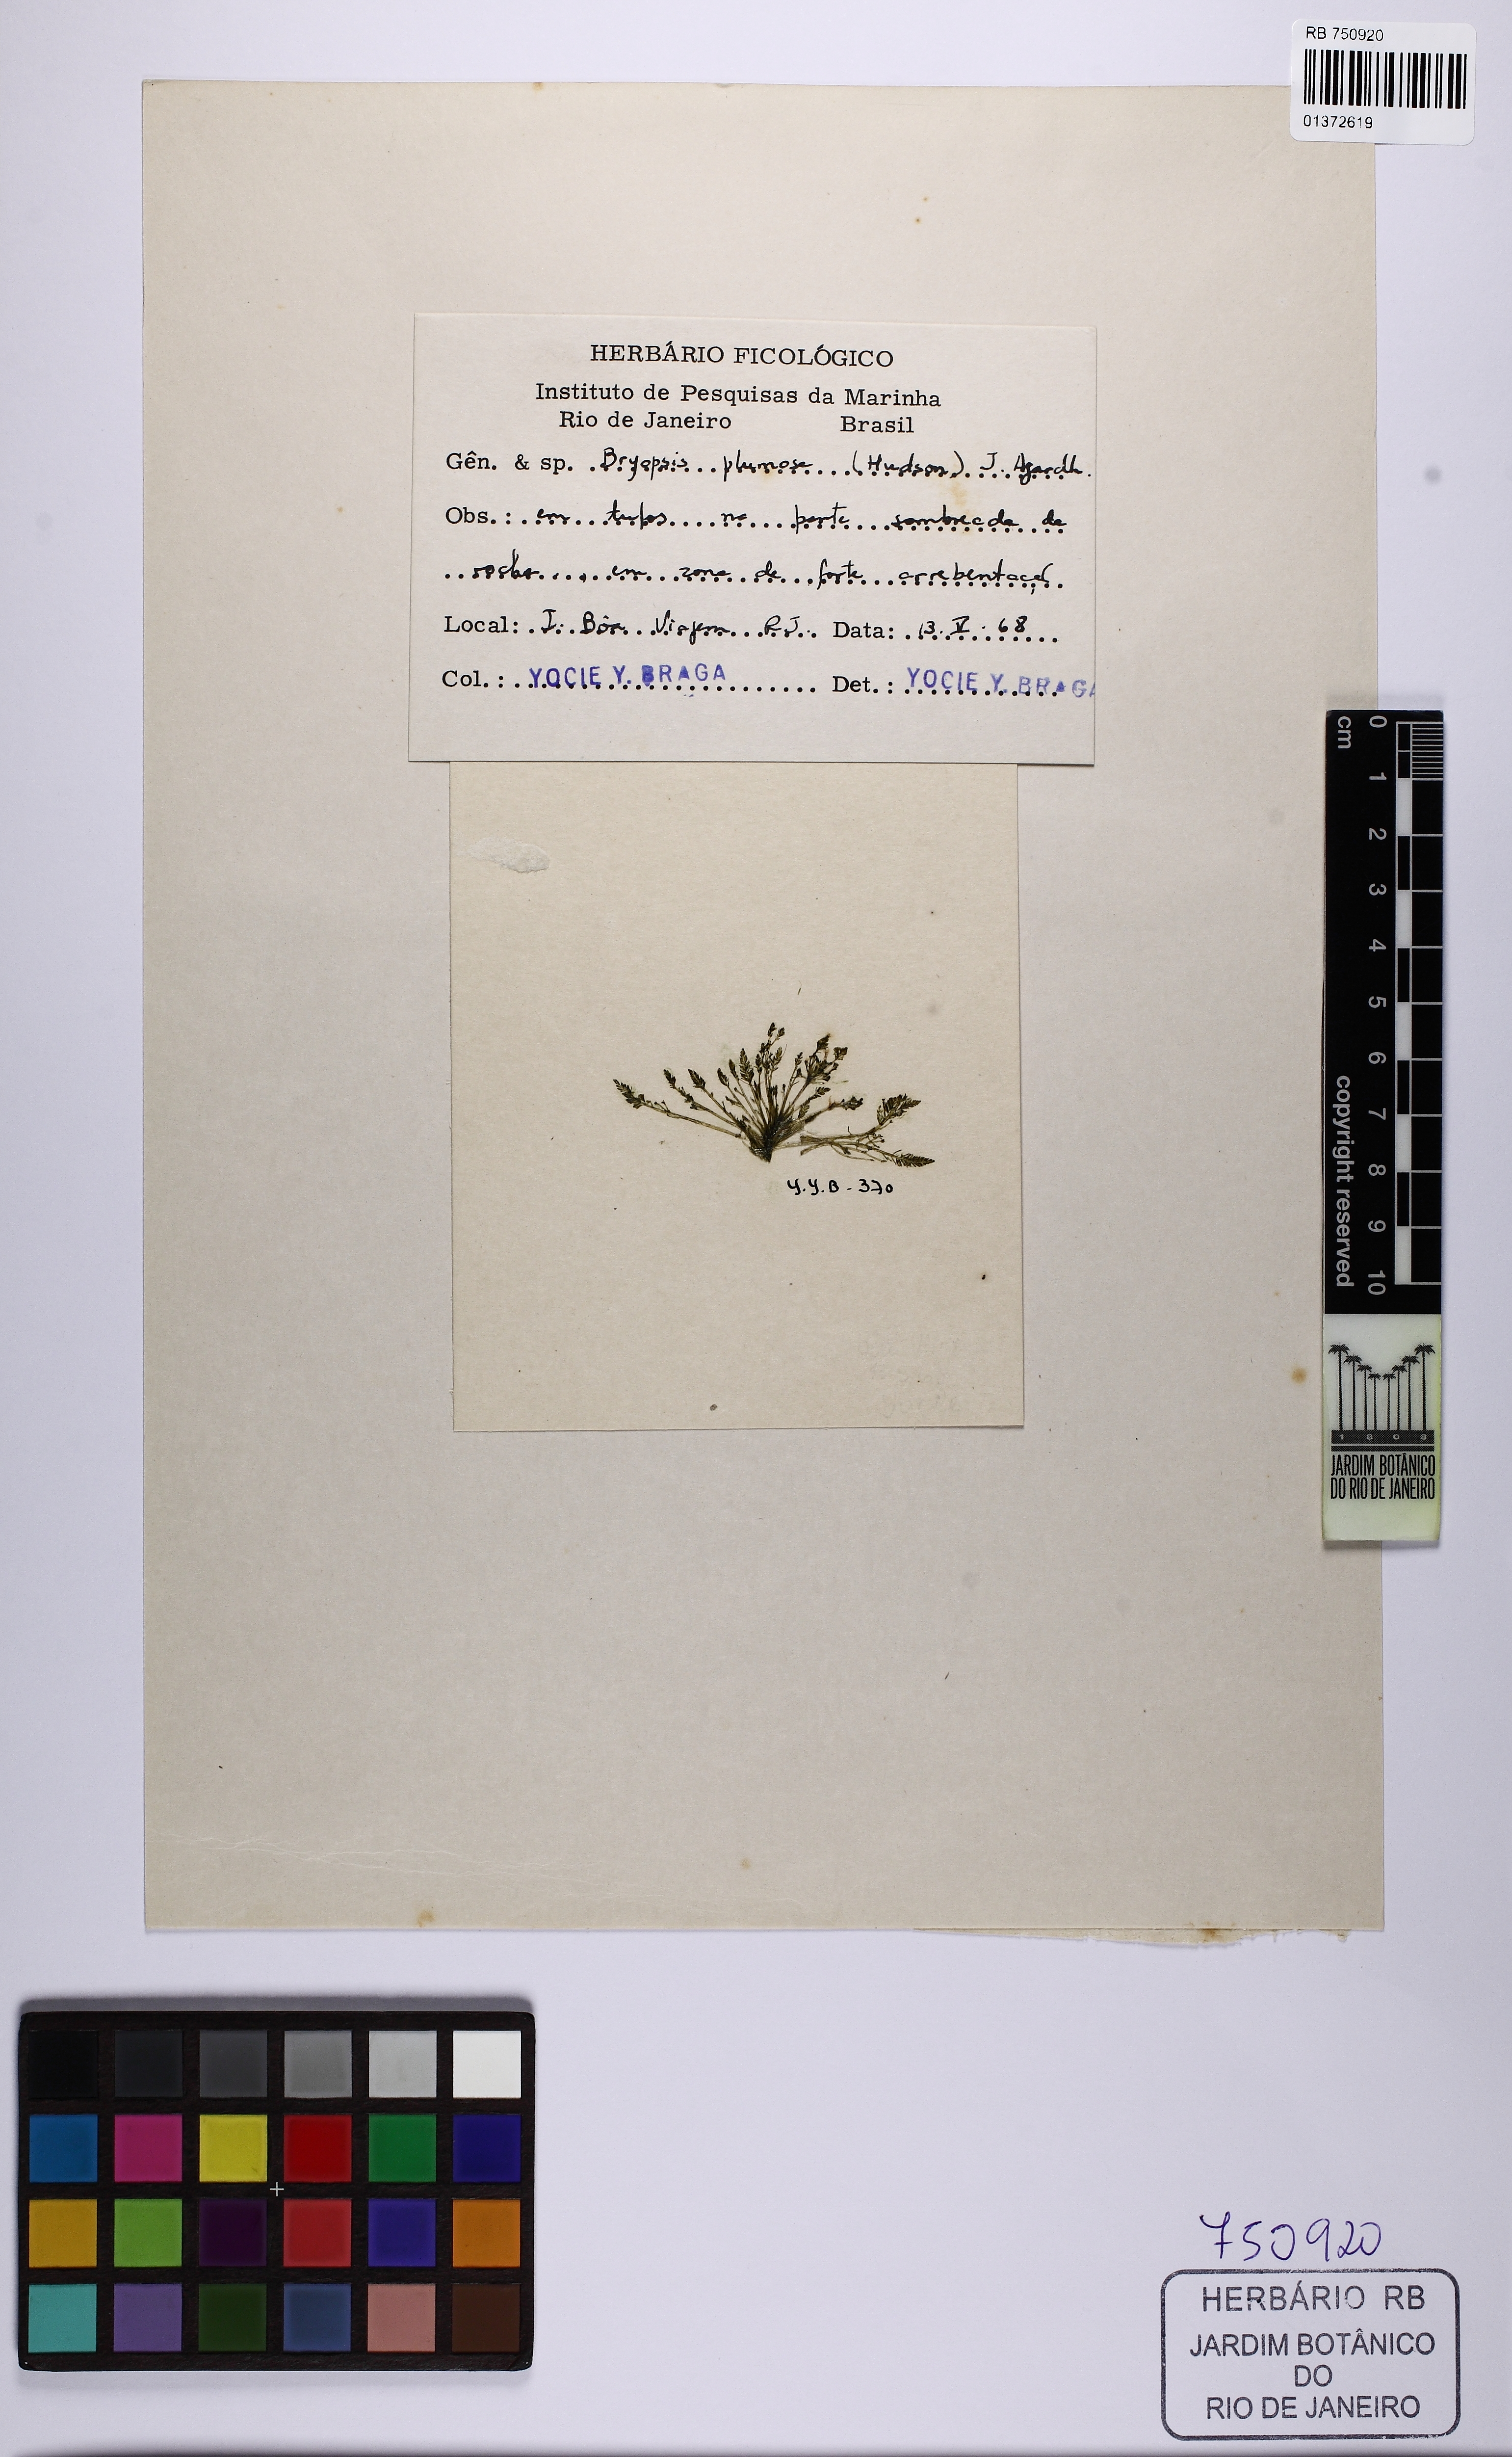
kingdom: Plantae
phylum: Chlorophyta
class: Ulvophyceae
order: Bryopsidales
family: Bryopsidaceae
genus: Bryopsis
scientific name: Bryopsis plumosa
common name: Hen pen
